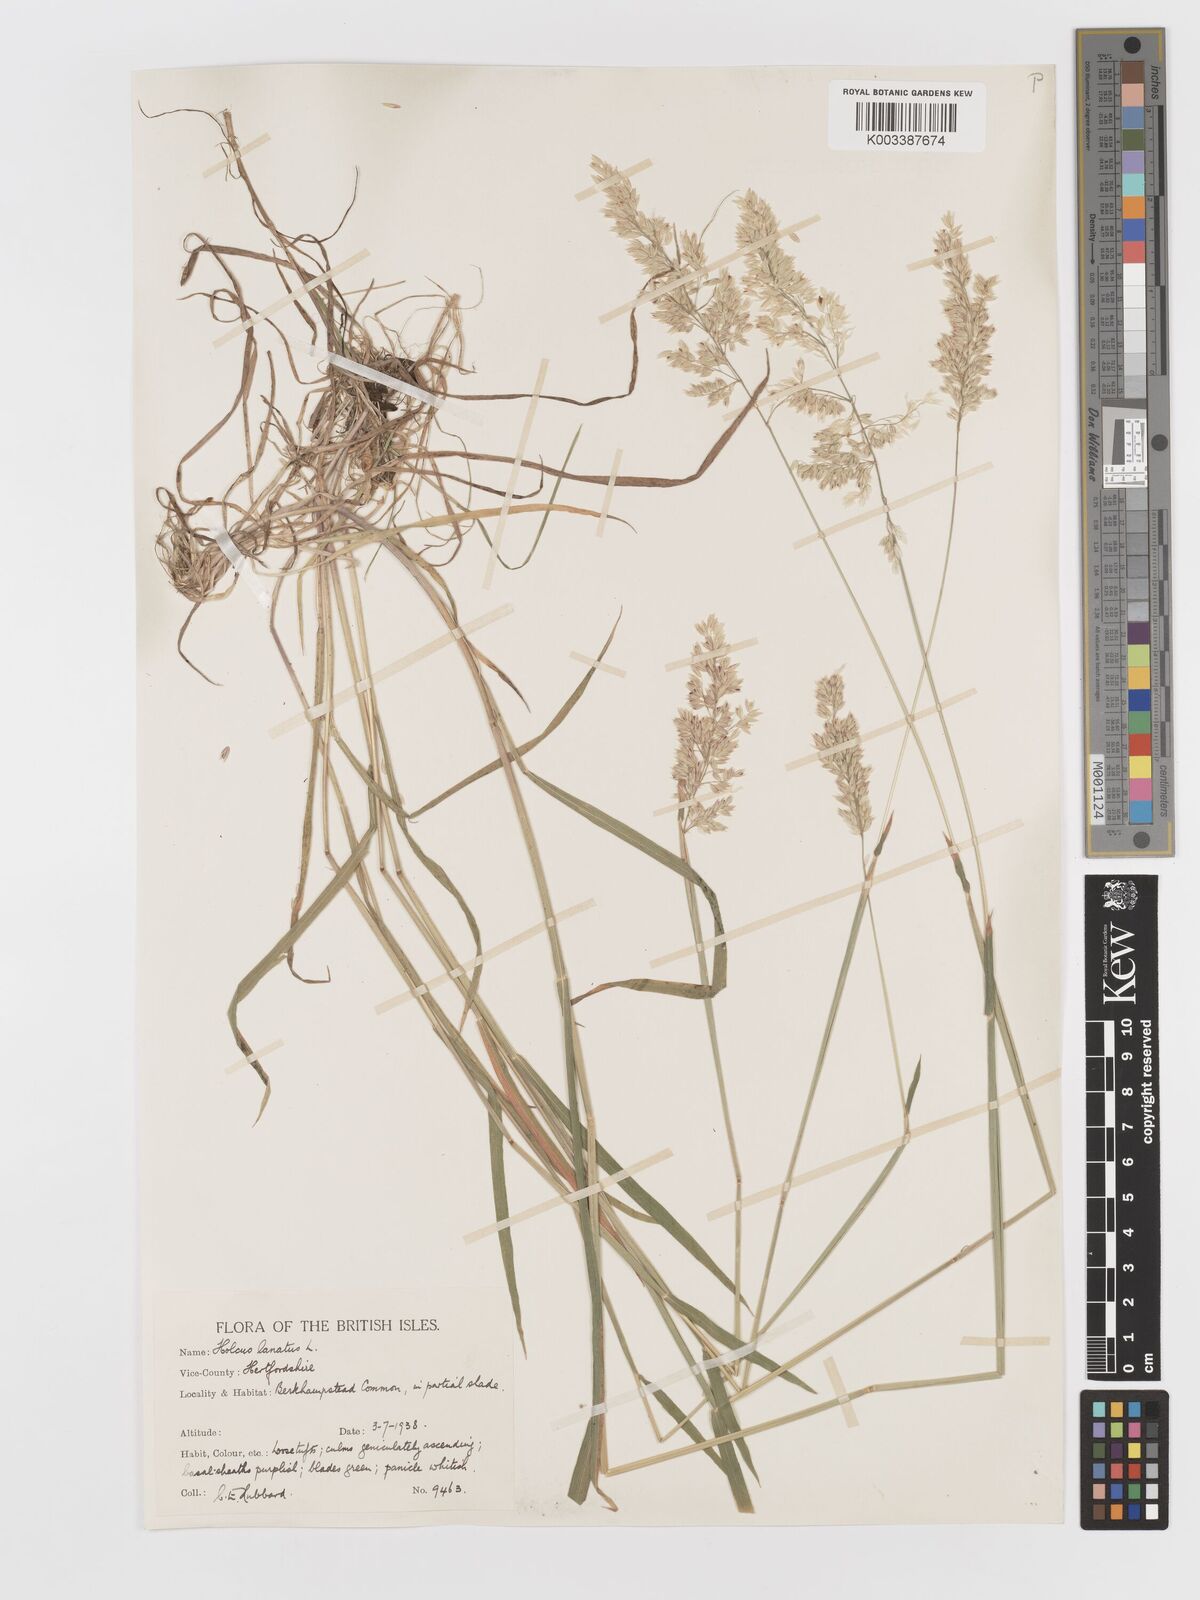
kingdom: Plantae
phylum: Tracheophyta
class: Liliopsida
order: Poales
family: Poaceae
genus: Holcus
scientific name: Holcus lanatus
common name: Yorkshire-fog
